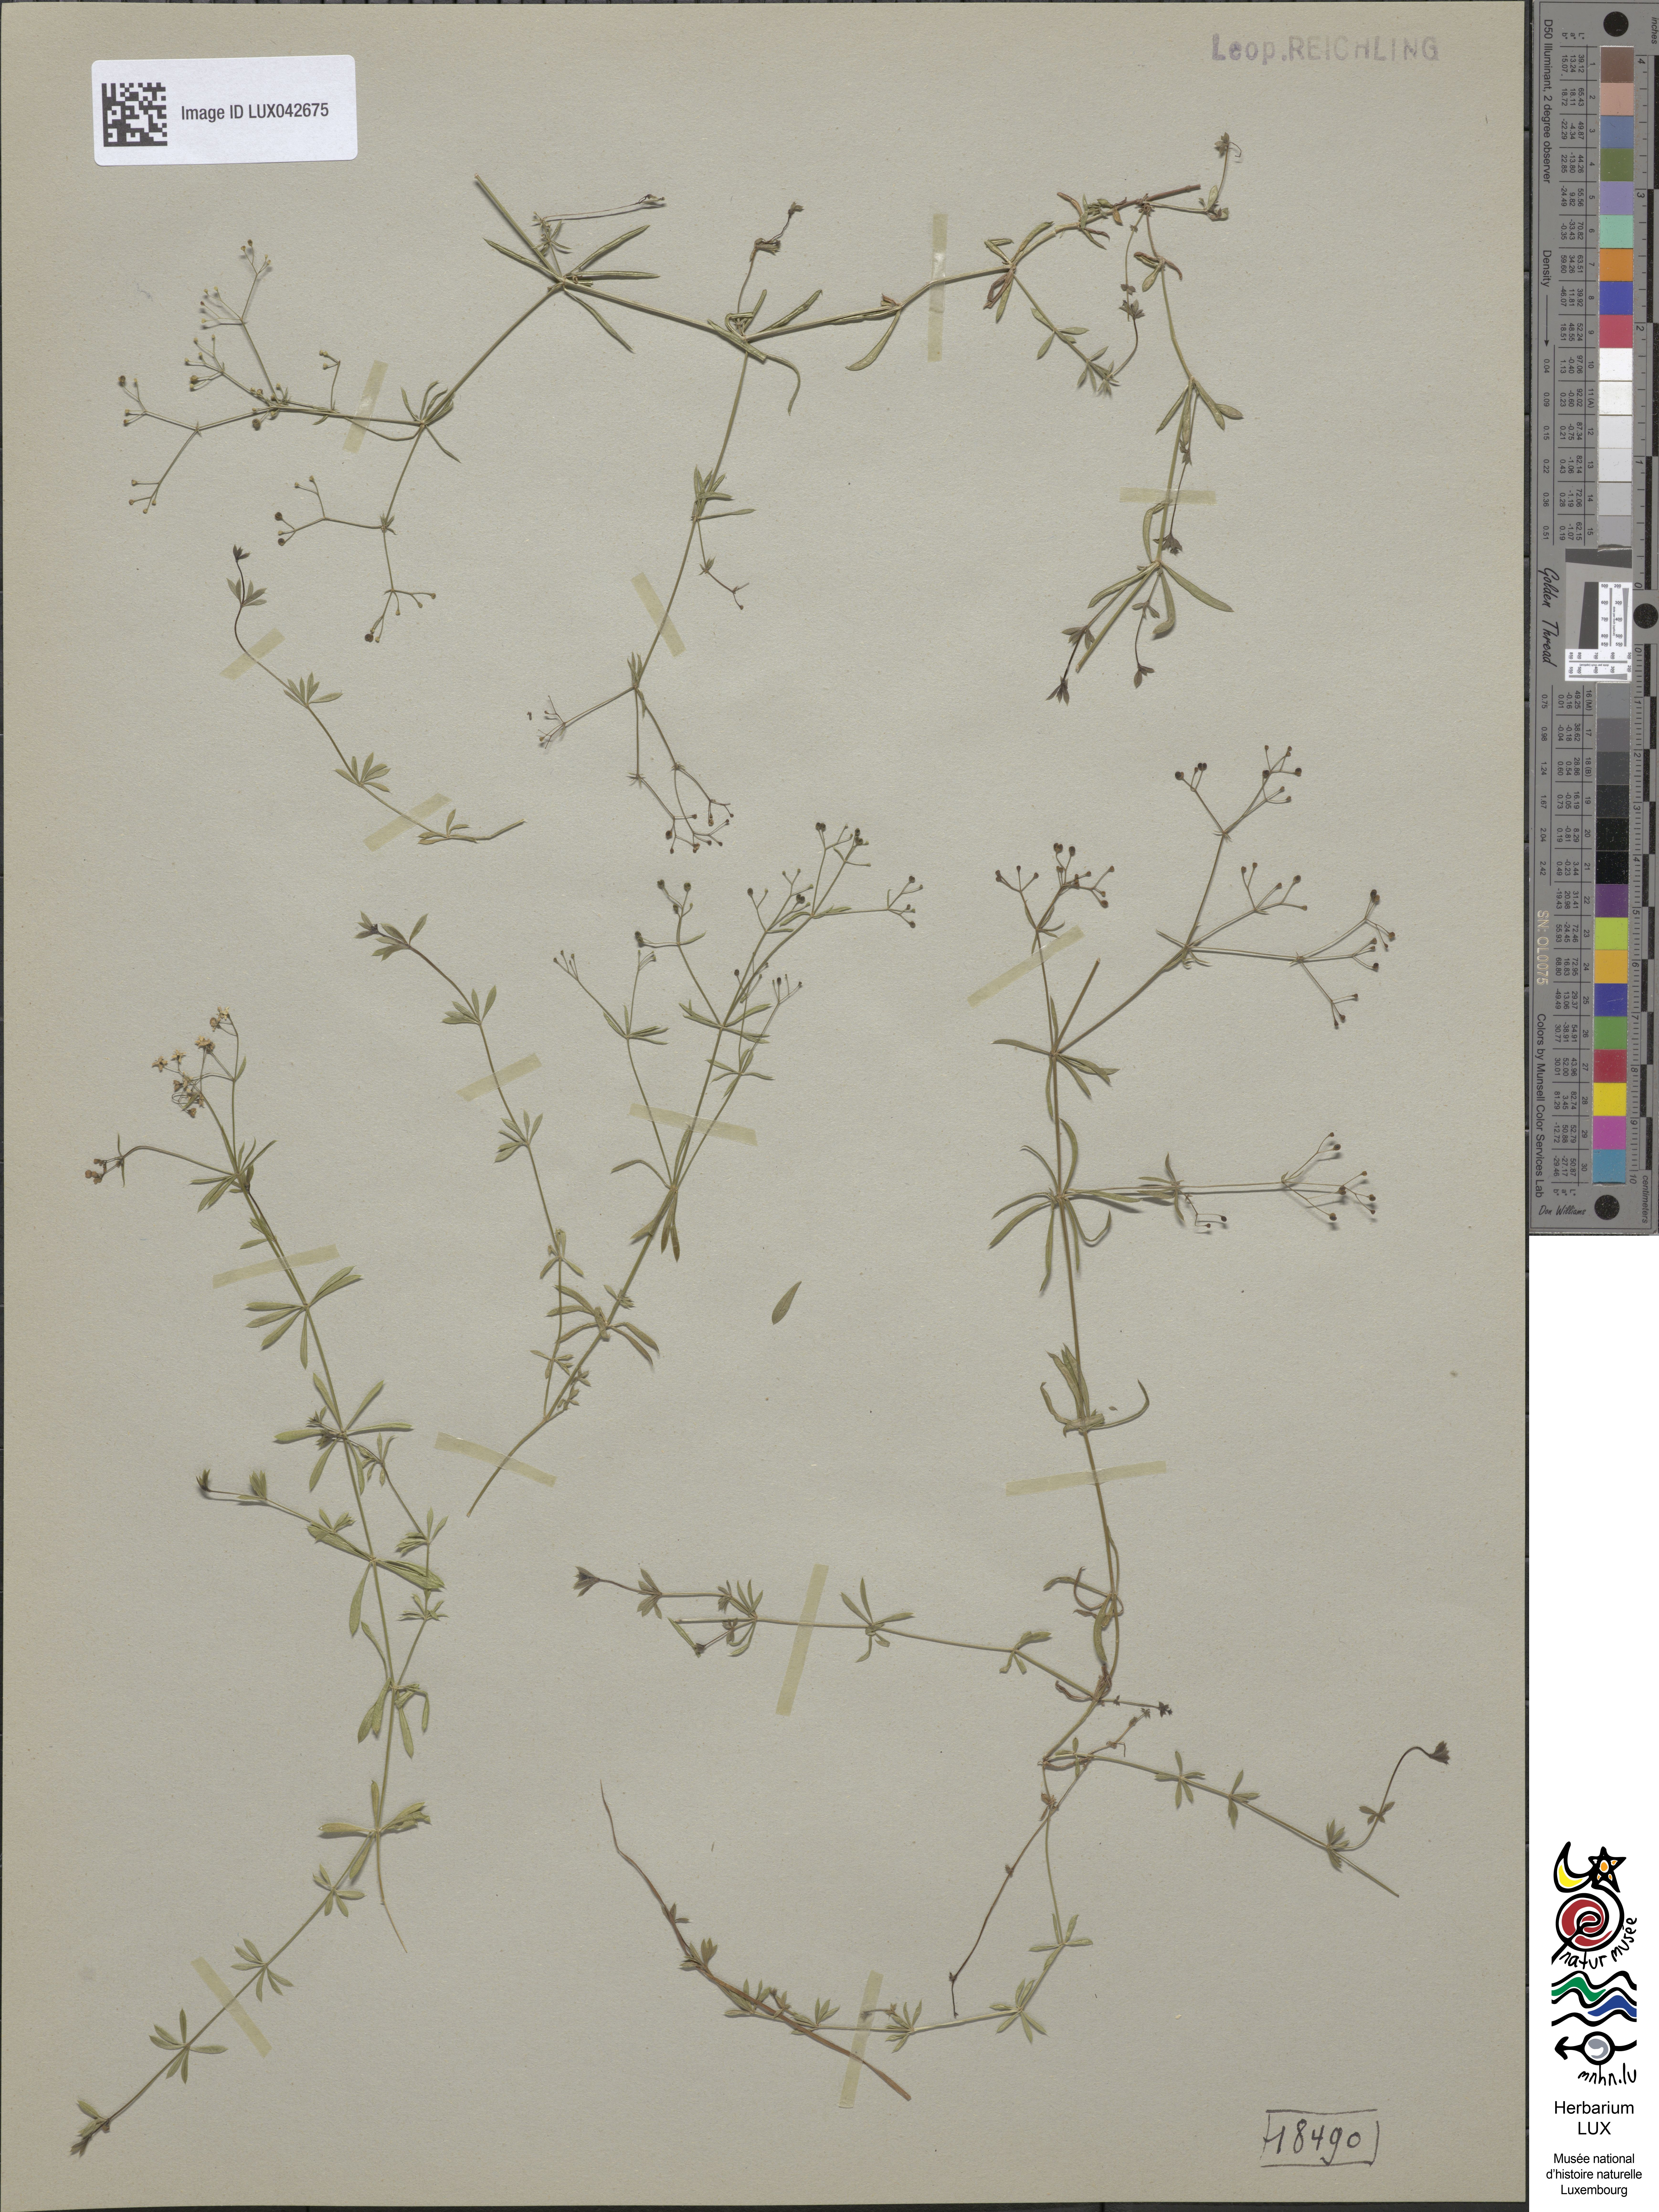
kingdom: Plantae
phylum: Tracheophyta
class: Magnoliopsida
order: Gentianales
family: Rubiaceae
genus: Galium
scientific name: Galium pumilum
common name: Slender bedstraw
